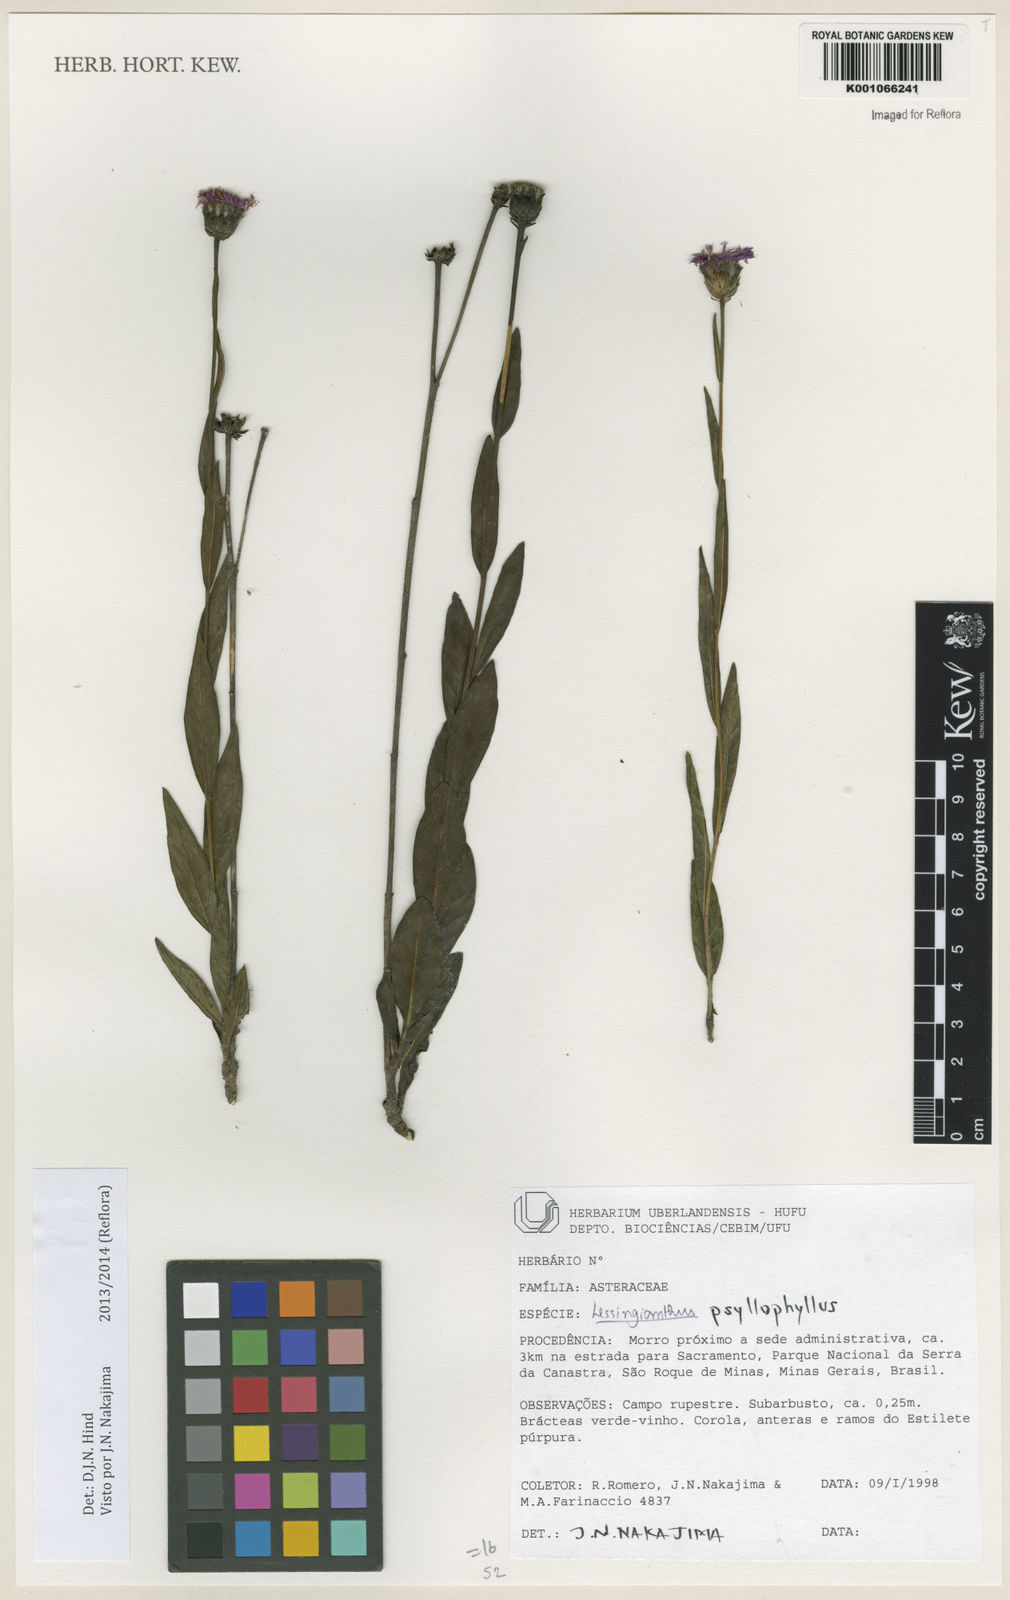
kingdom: Plantae
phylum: Tracheophyta
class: Magnoliopsida
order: Asterales
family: Asteraceae
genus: Lessingianthus
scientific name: Lessingianthus psilophyllus
